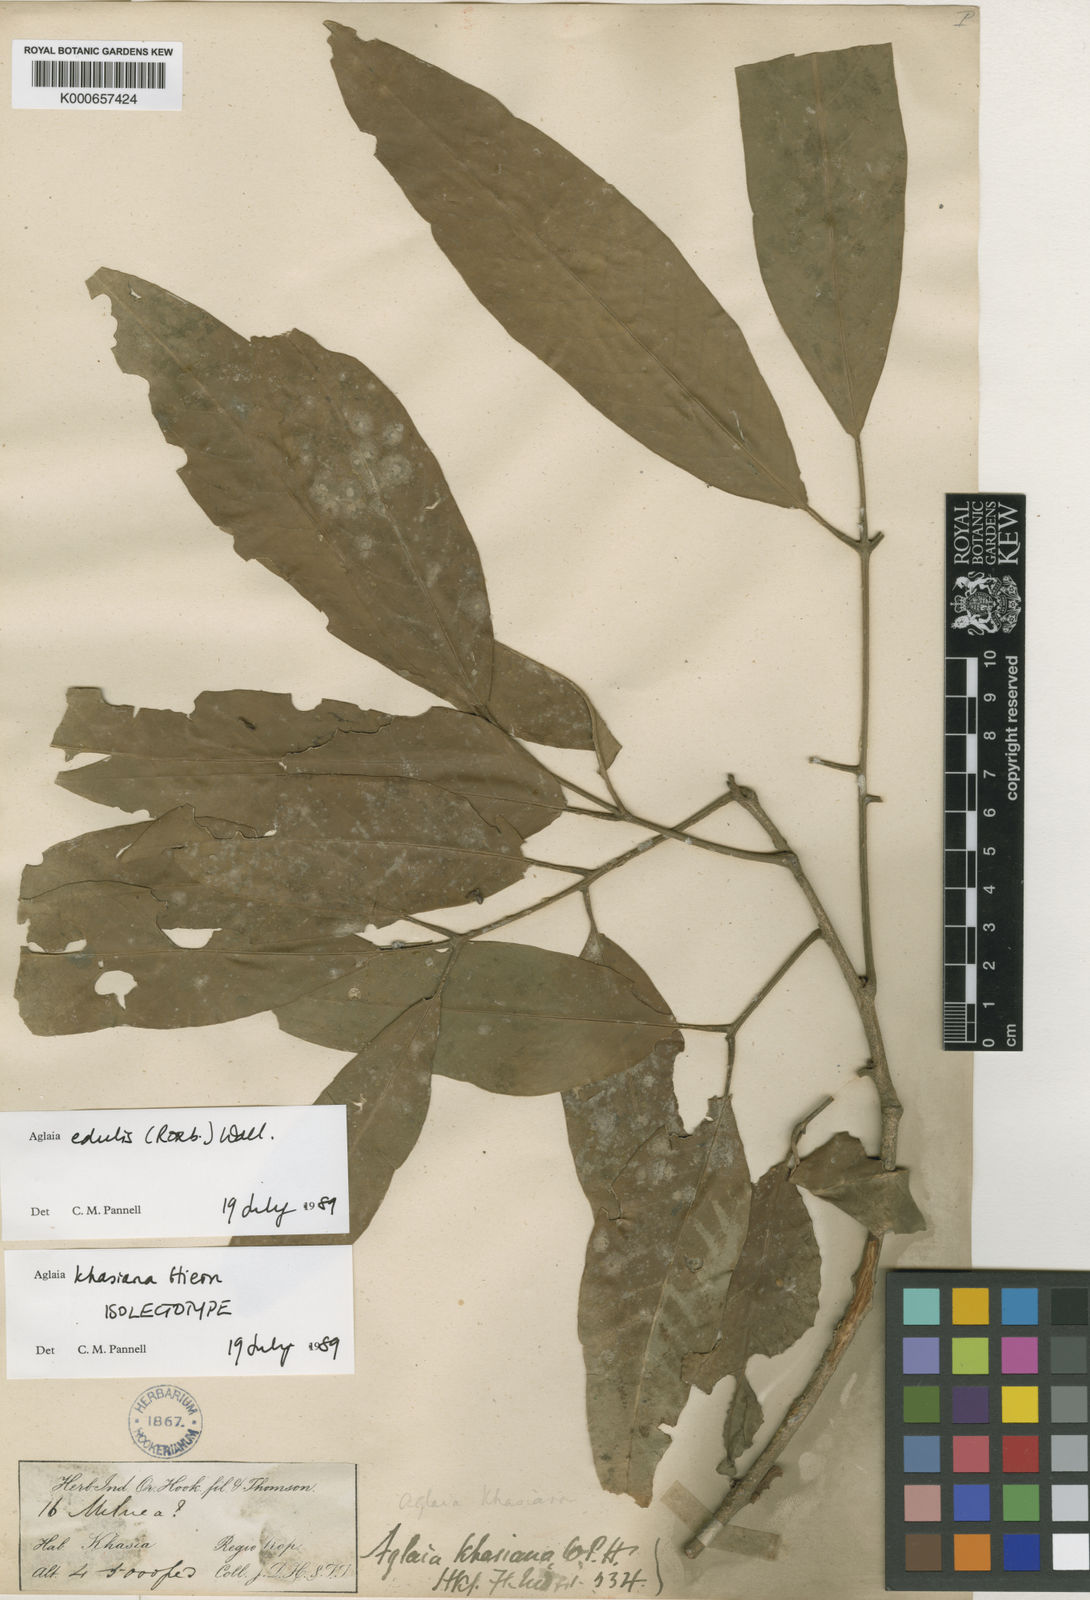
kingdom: Plantae
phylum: Tracheophyta
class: Magnoliopsida
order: Sapindales
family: Meliaceae
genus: Aglaia
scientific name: Aglaia edulis
